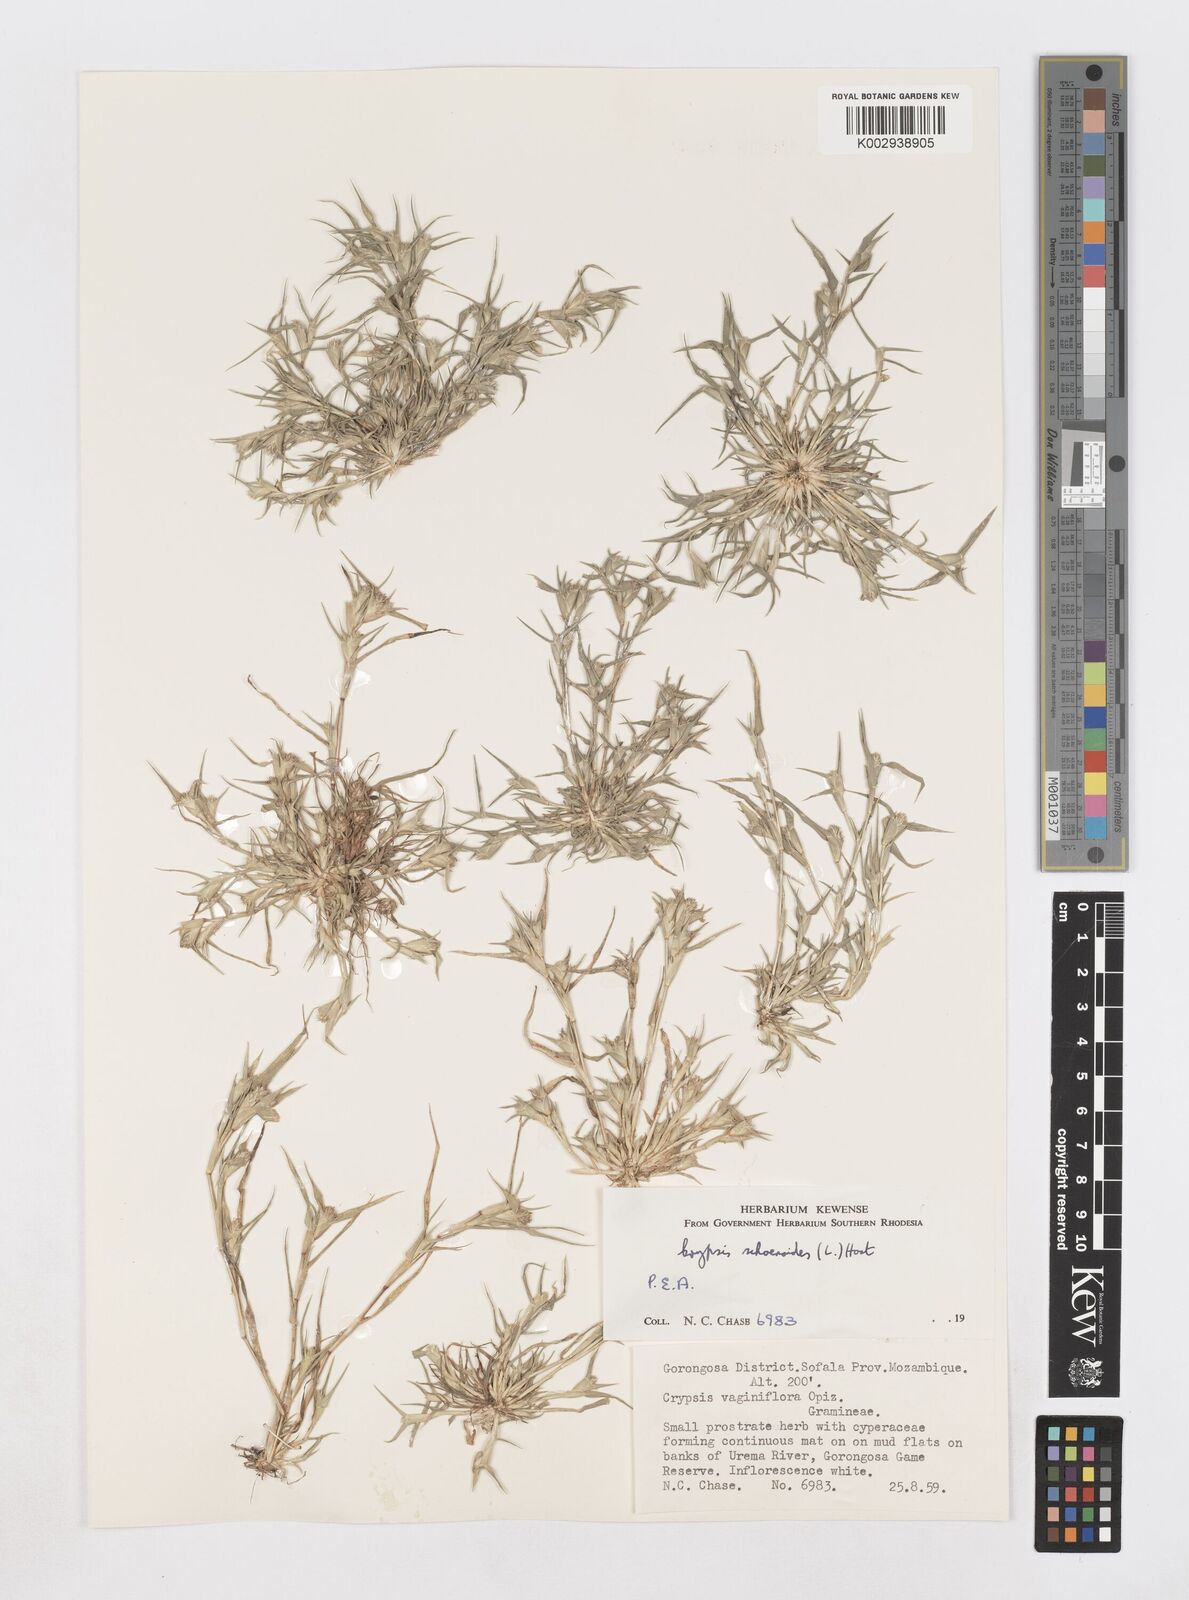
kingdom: Plantae
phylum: Tracheophyta
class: Liliopsida
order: Poales
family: Poaceae
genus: Sporobolus
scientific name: Sporobolus niliacus
